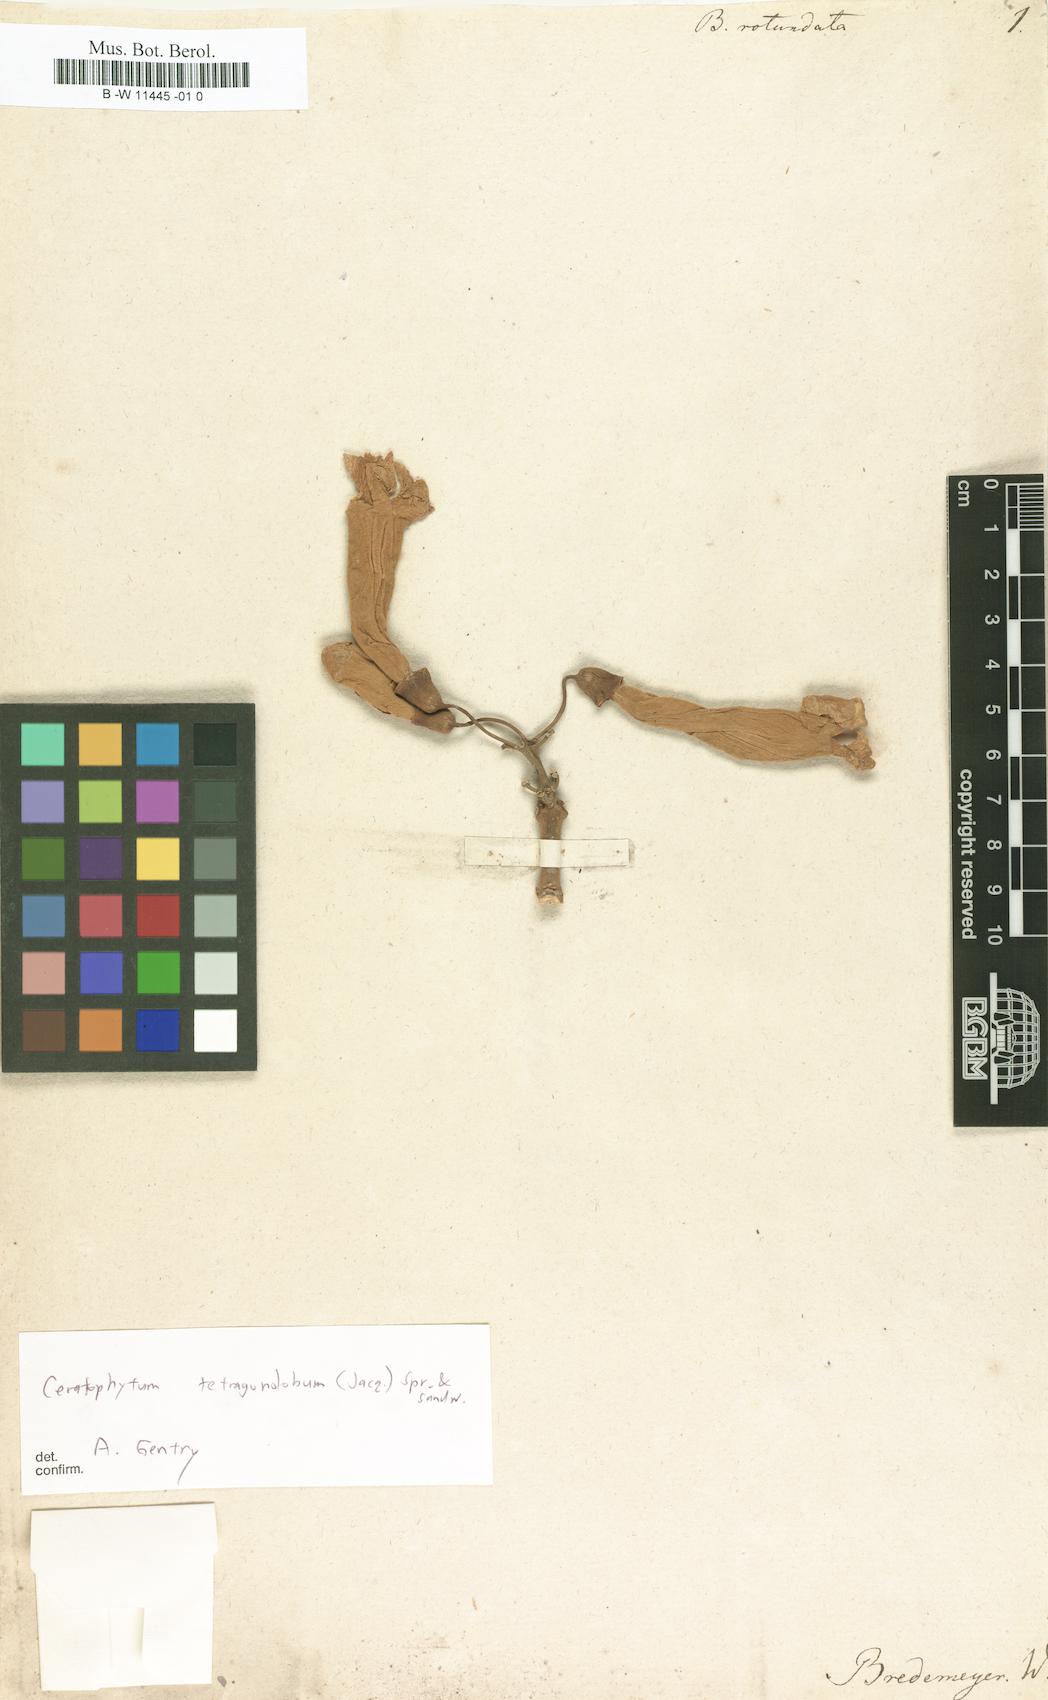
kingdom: Plantae
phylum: Tracheophyta
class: Magnoliopsida
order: Lamiales
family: Bignoniaceae
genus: Tanaecium
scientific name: Tanaecium dichotomum
